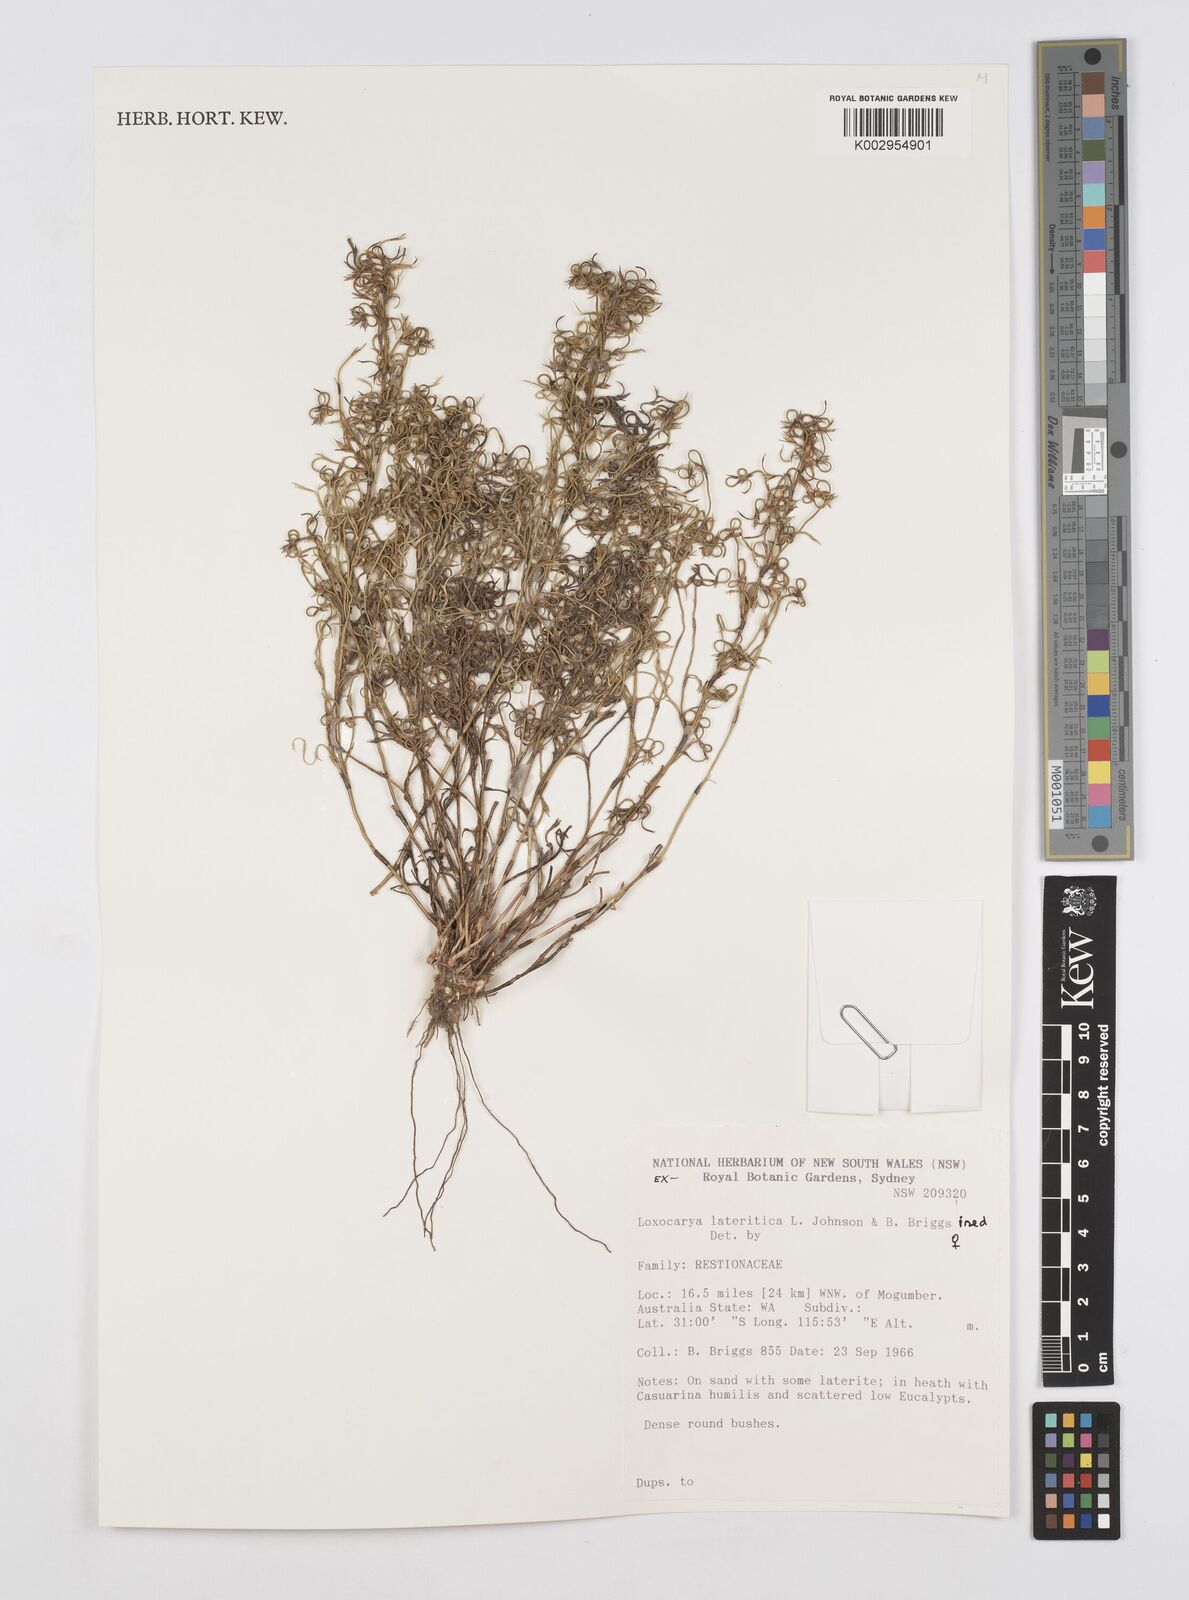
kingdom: Plantae
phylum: Tracheophyta
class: Liliopsida
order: Poales
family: Restionaceae
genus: Desmocladus
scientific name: Desmocladus lateriticus
